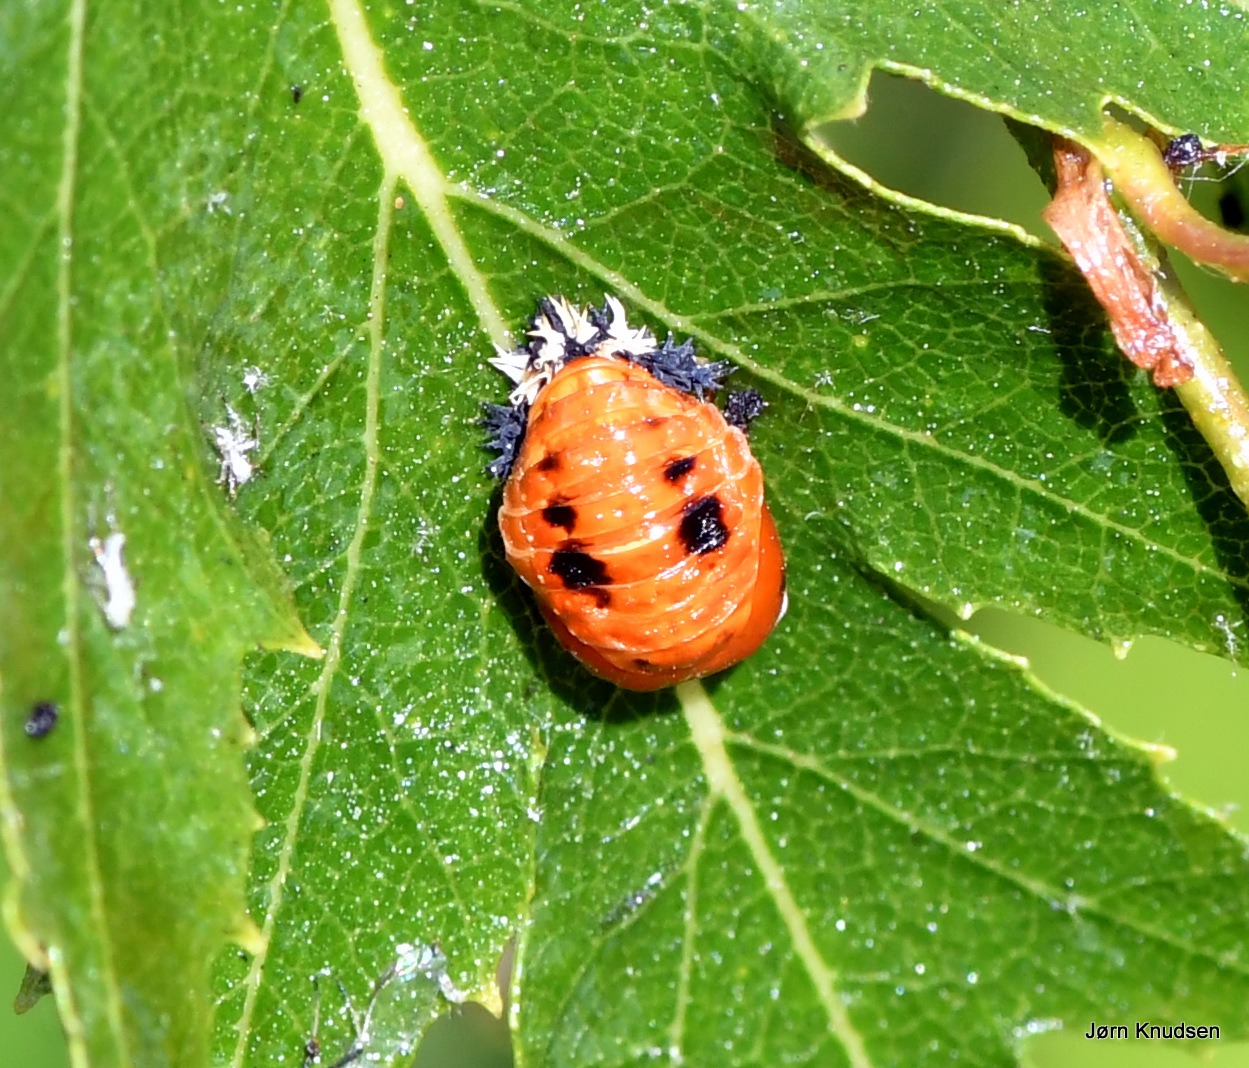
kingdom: Animalia
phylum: Arthropoda
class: Insecta
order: Coleoptera
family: Coccinellidae
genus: Harmonia
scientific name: Harmonia axyridis
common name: Harlekinmariehøne
